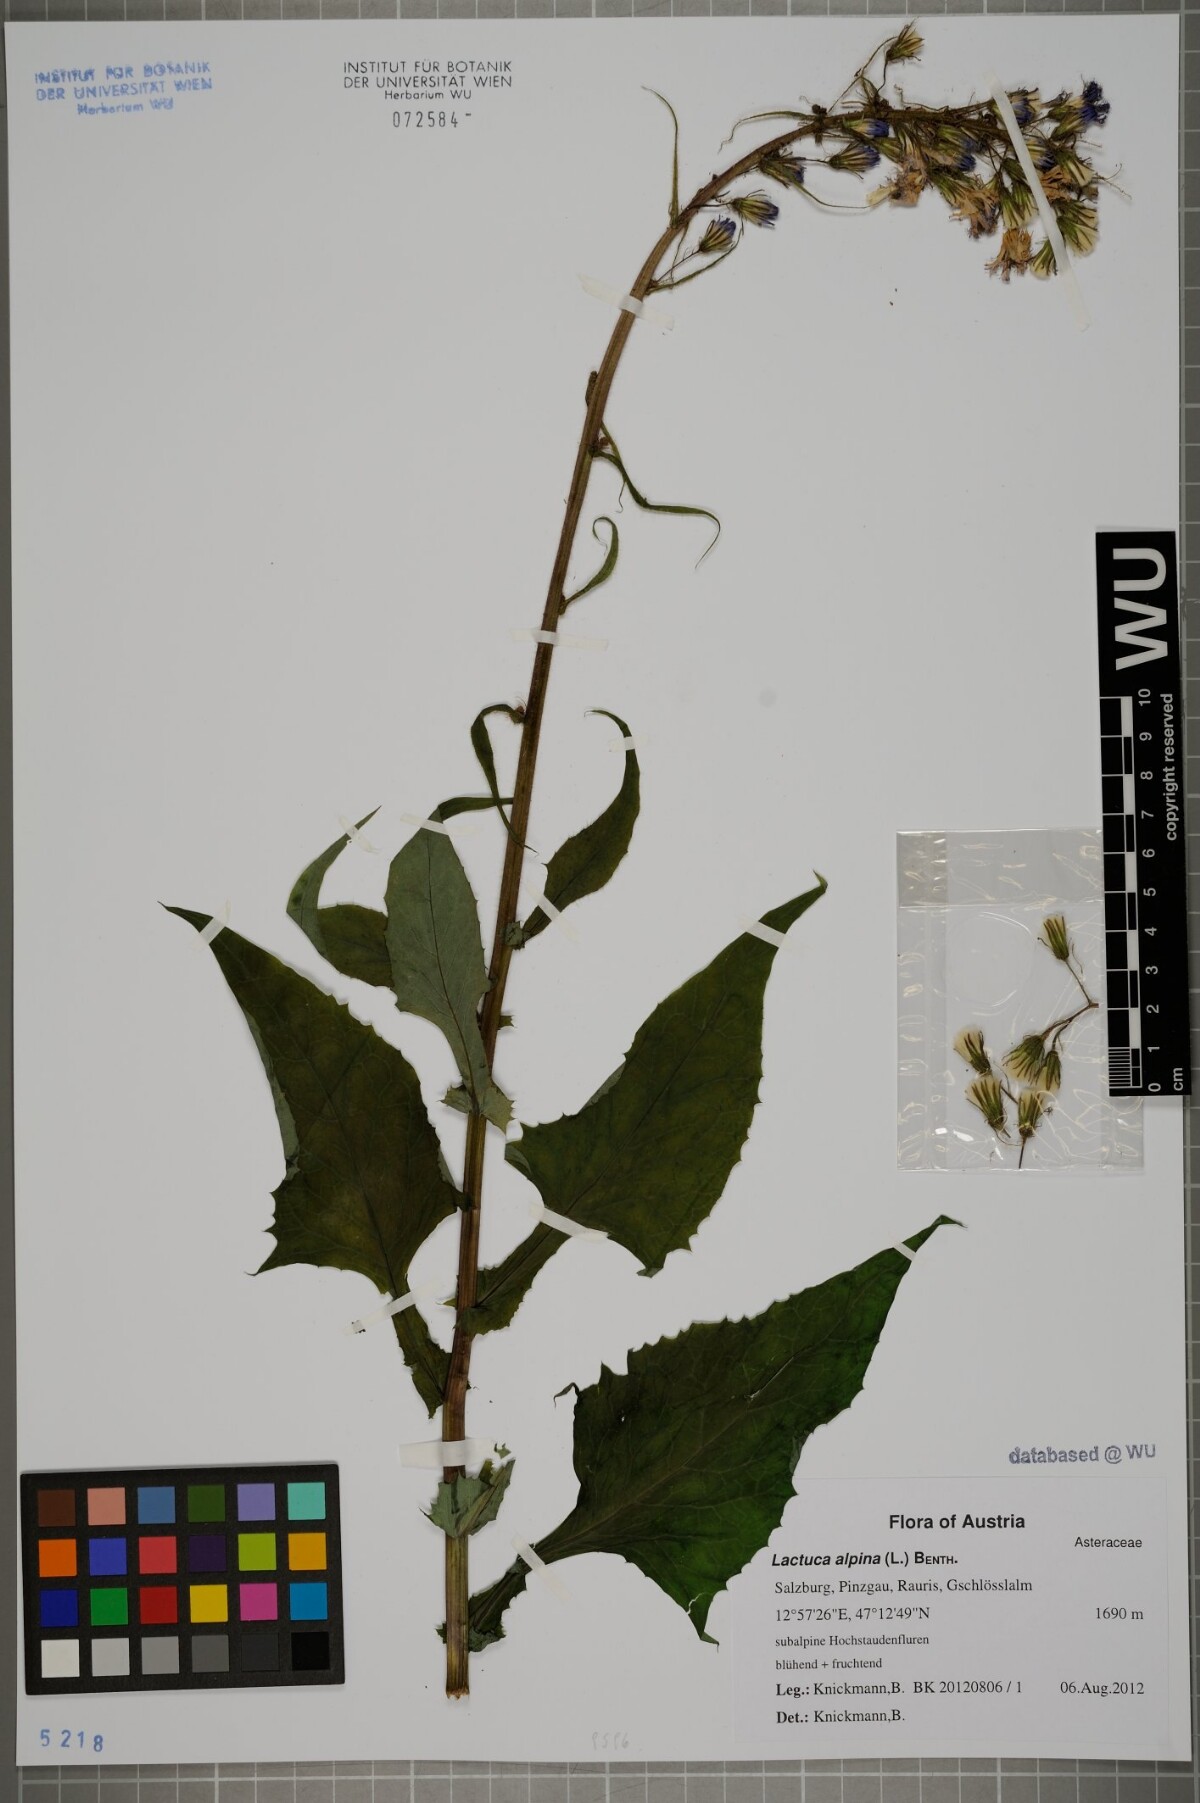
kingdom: Plantae
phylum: Tracheophyta
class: Magnoliopsida
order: Asterales
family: Asteraceae
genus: Lactuca
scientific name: Lactuca alpina
